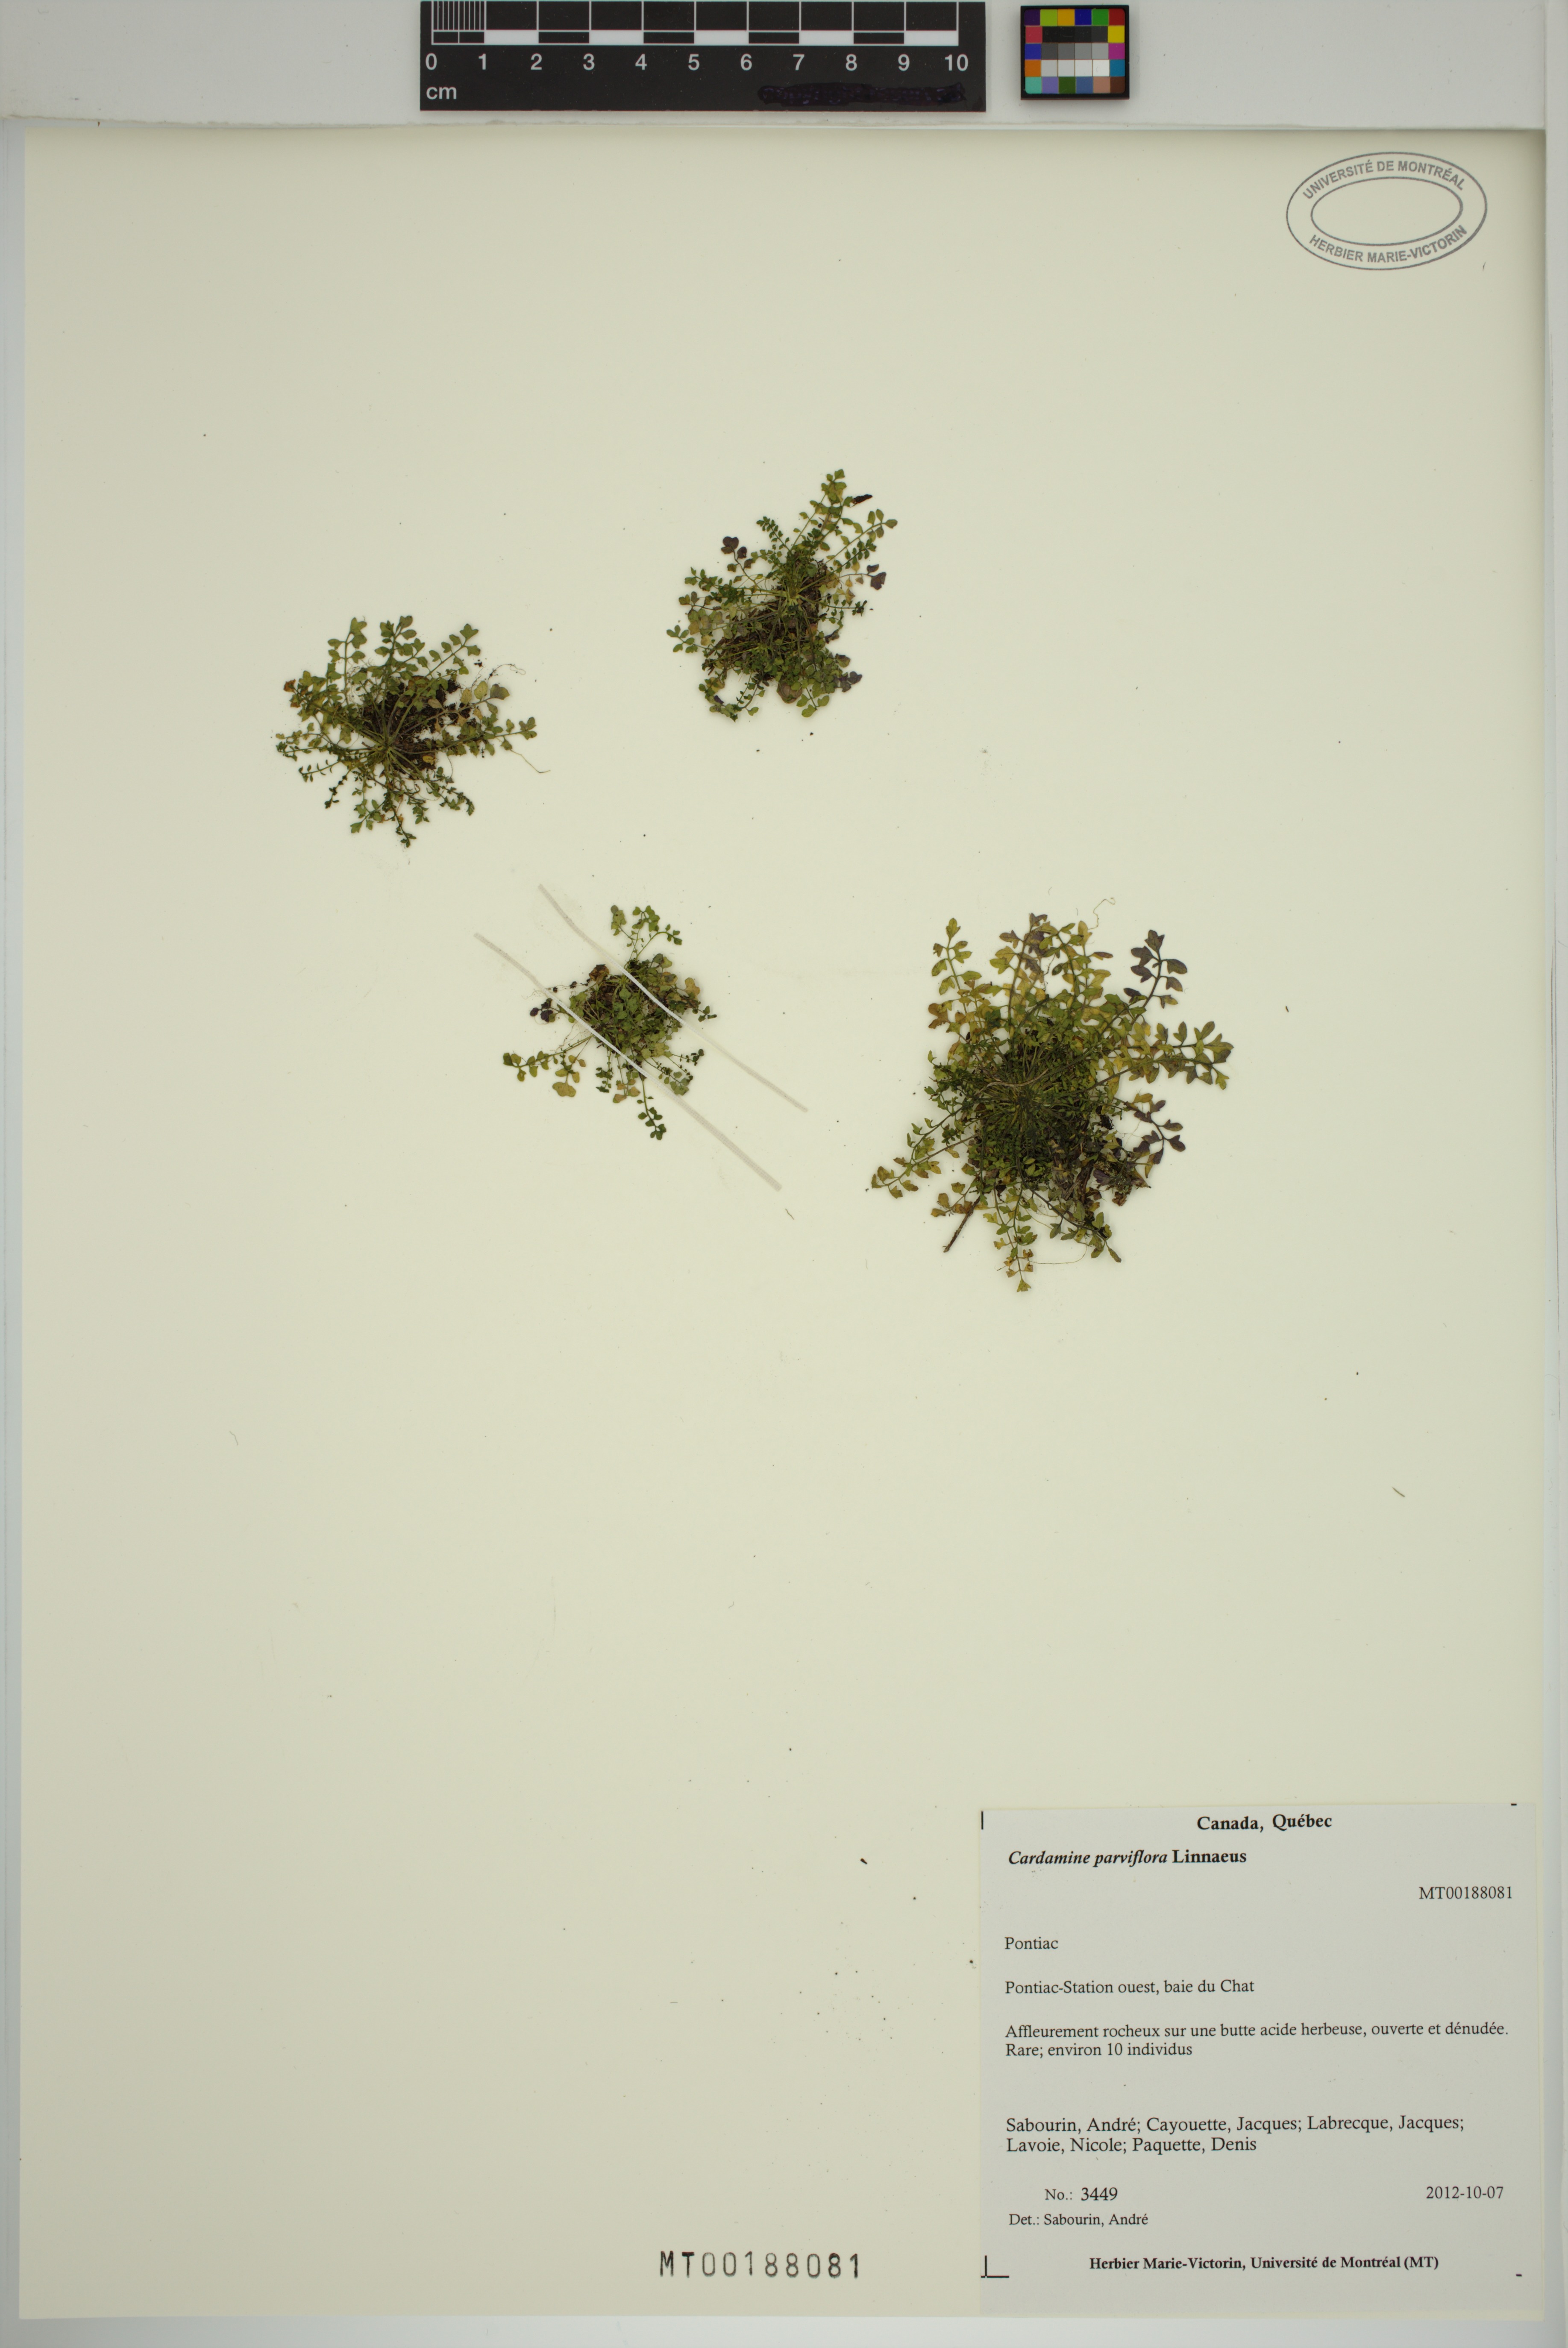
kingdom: Plantae
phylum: Tracheophyta
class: Magnoliopsida
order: Brassicales
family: Brassicaceae
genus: Cardamine
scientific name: Cardamine parviflora
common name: Sand bittercress
